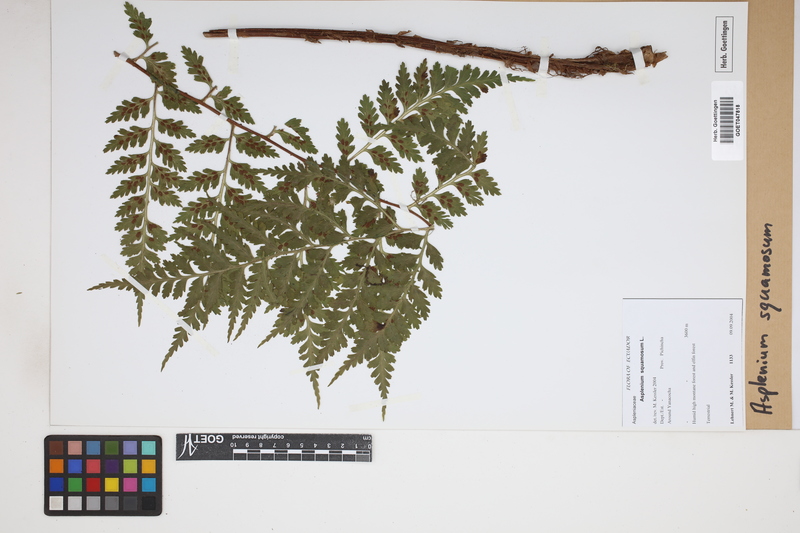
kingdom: Plantae
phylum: Tracheophyta
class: Polypodiopsida
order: Polypodiales
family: Aspleniaceae
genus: Asplenium
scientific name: Asplenium squamosum
